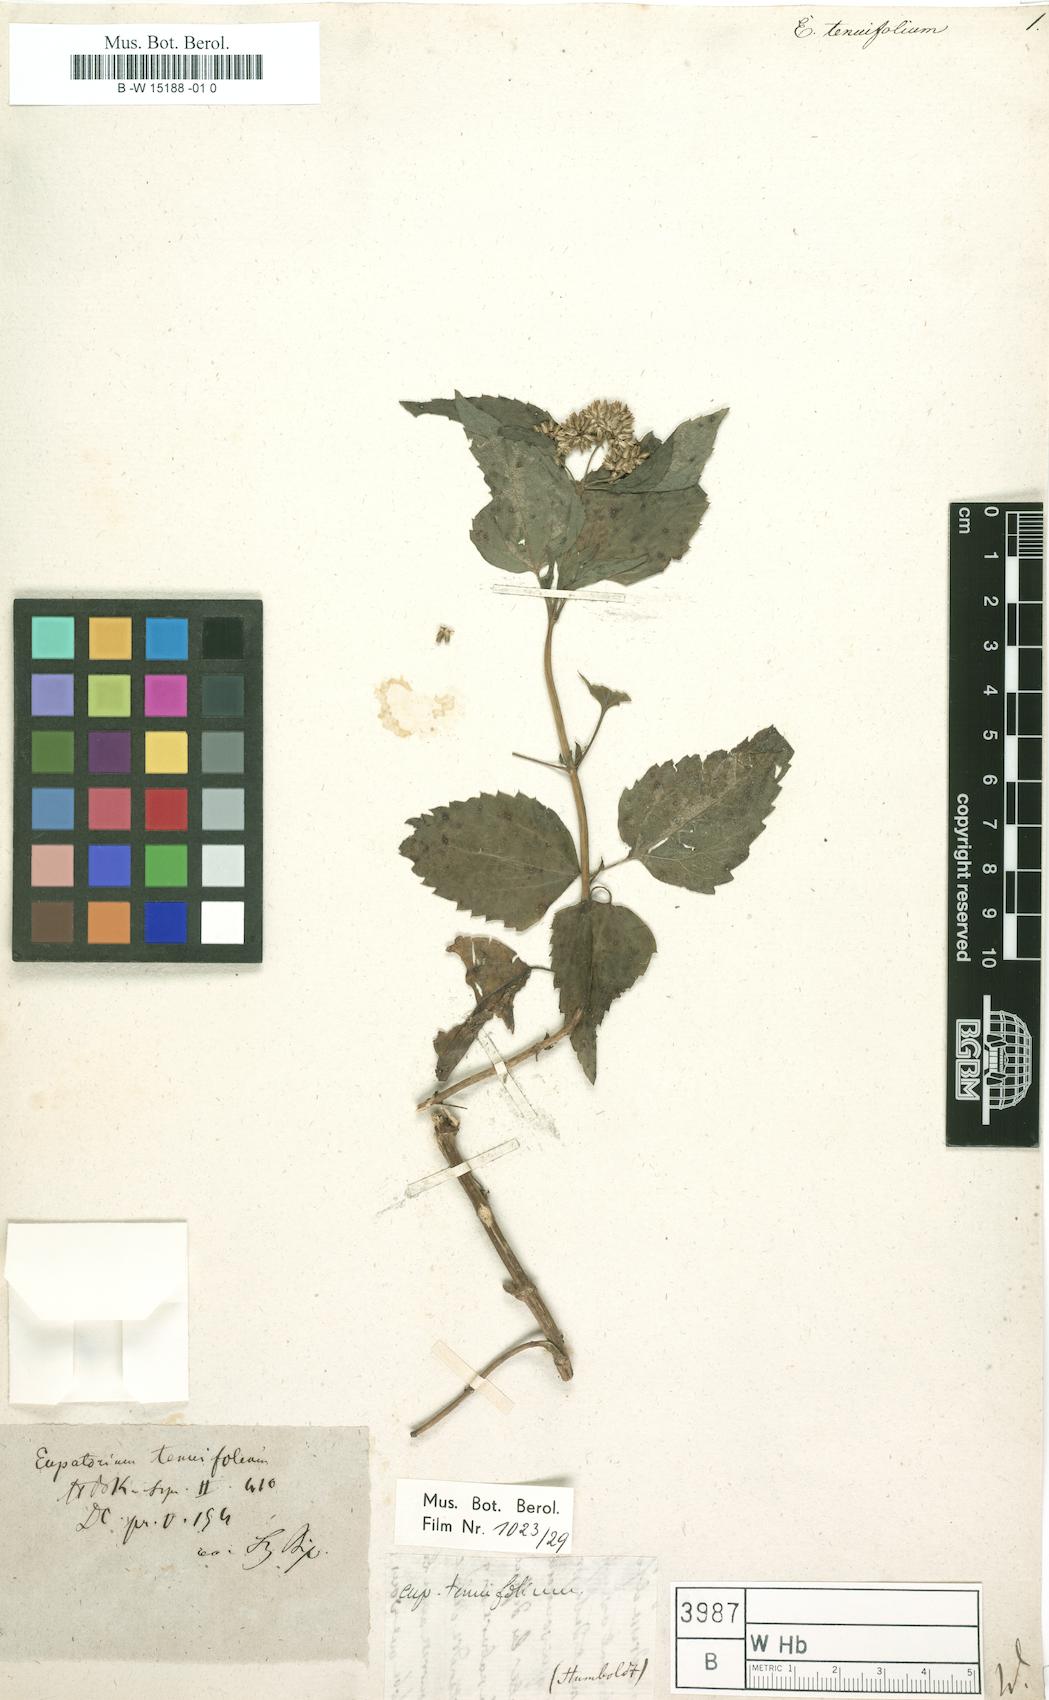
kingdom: Plantae
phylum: Tracheophyta
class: Magnoliopsida
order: Asterales
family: Asteraceae
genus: Critoniella
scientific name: Critoniella tenuifolia
